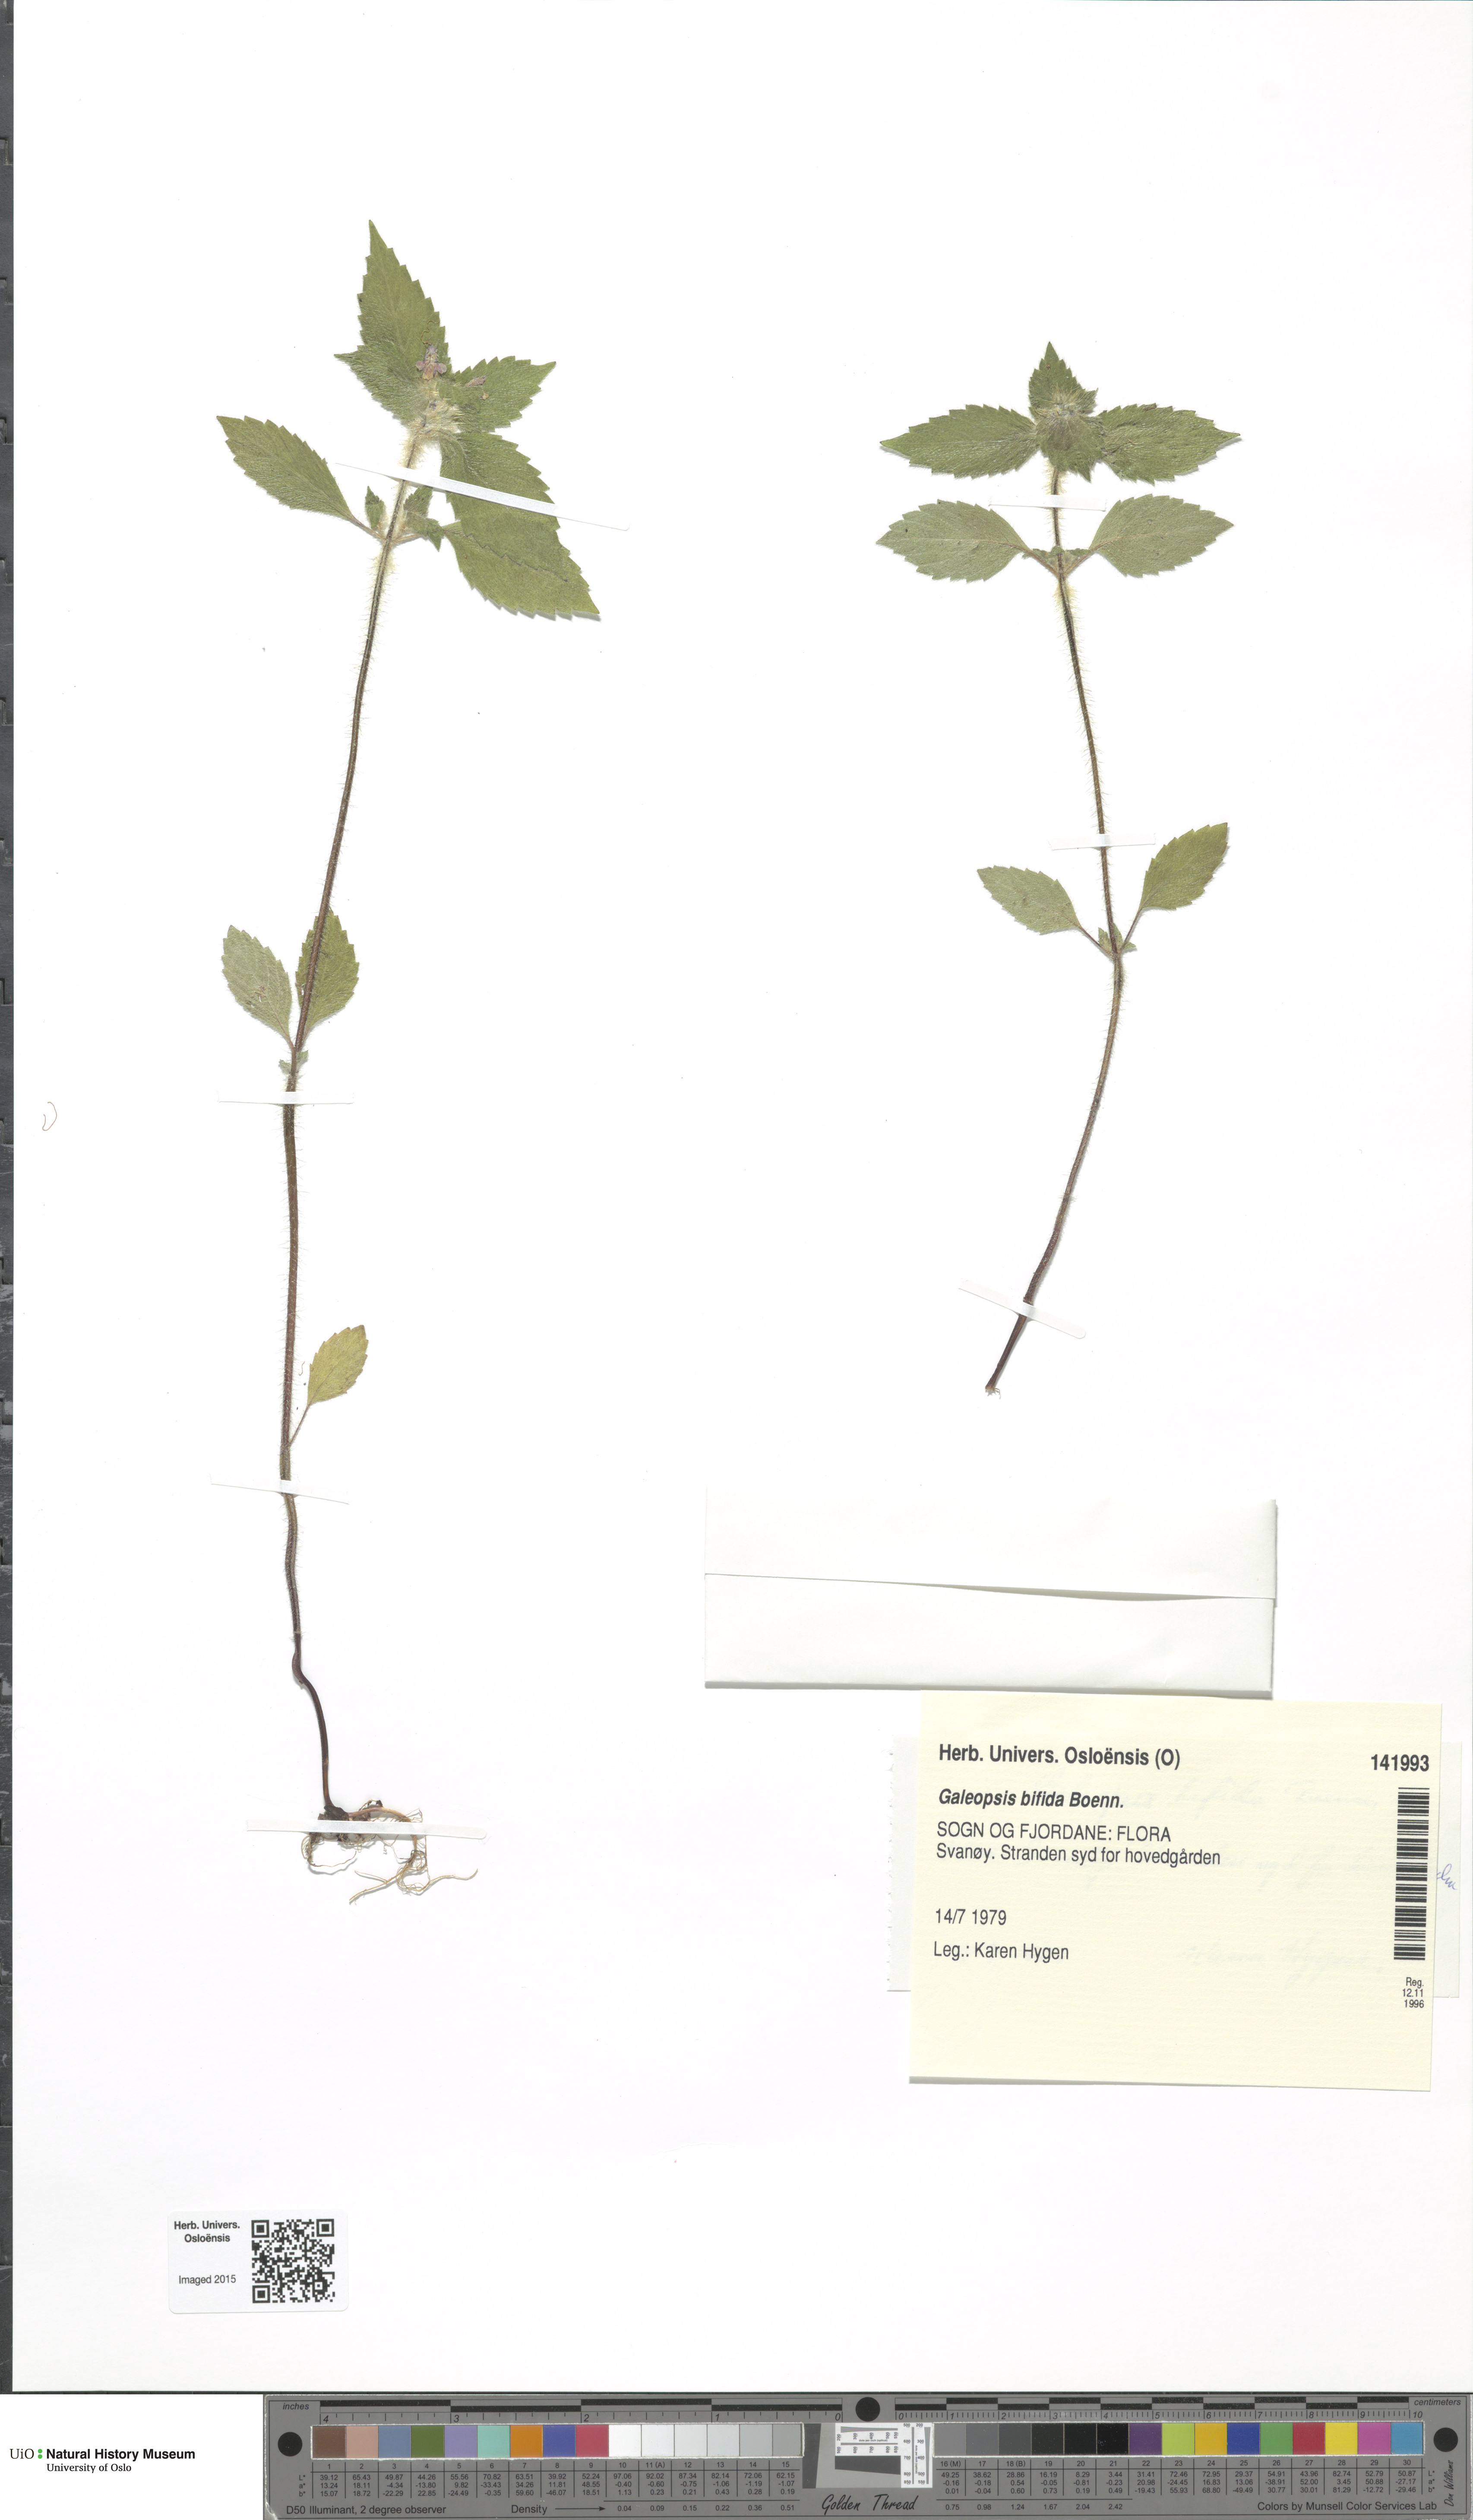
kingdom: Plantae
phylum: Tracheophyta
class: Magnoliopsida
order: Lamiales
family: Lamiaceae
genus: Galeopsis
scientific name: Galeopsis bifida
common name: Bifid hemp-nettle
